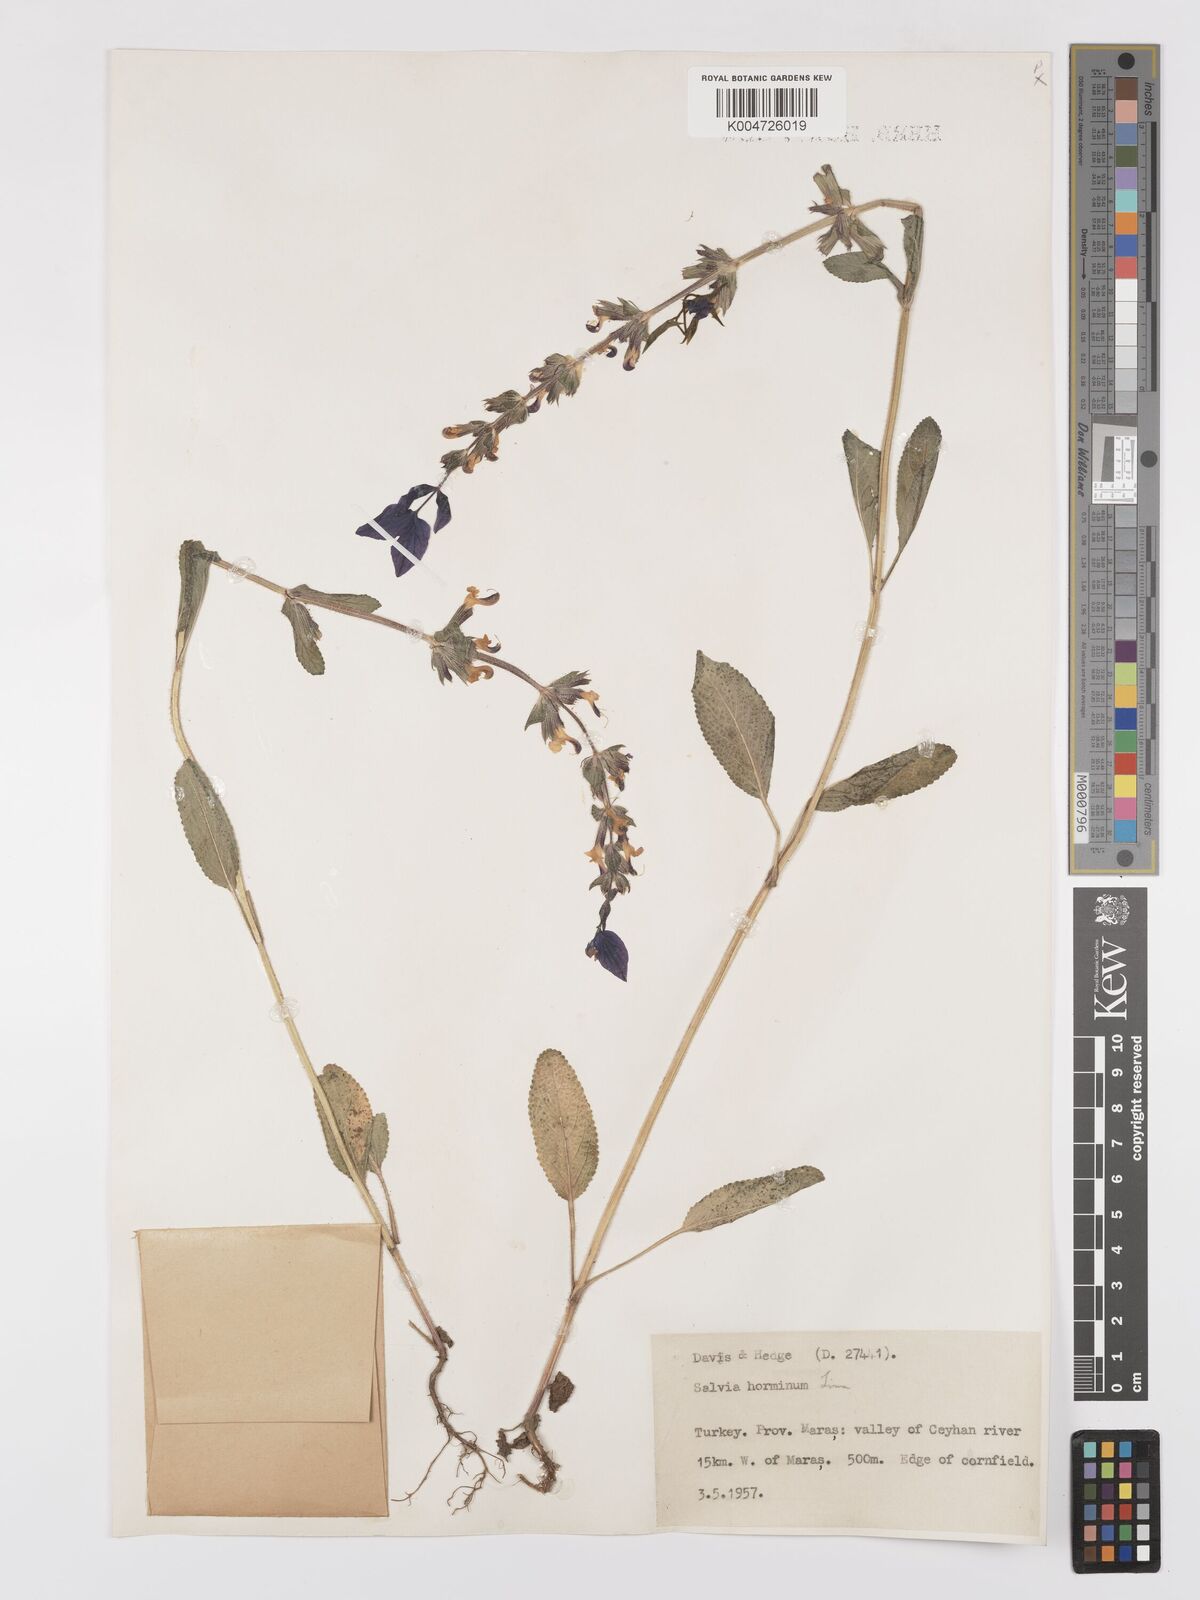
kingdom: Plantae
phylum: Tracheophyta
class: Magnoliopsida
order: Lamiales
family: Lamiaceae
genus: Salvia
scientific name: Salvia viridis
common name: Annual clary
